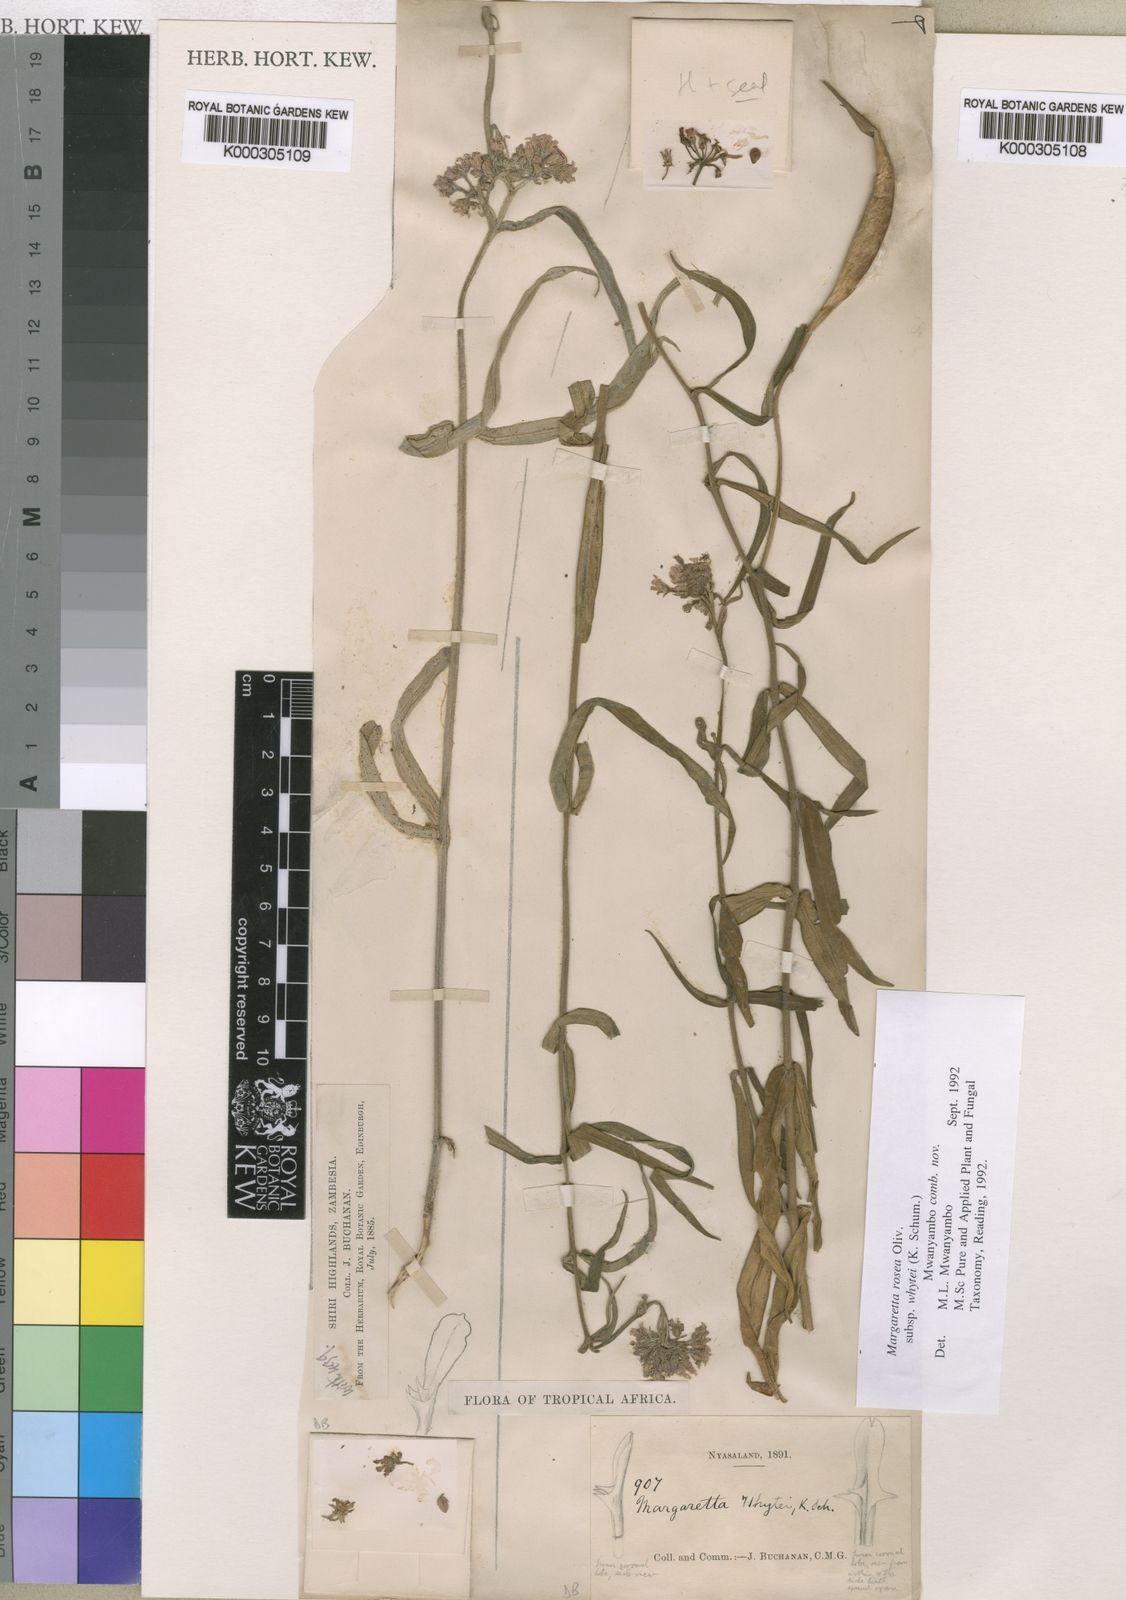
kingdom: Plantae
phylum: Tracheophyta
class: Magnoliopsida
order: Gentianales
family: Apocynaceae
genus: Margaretta
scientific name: Margaretta rosea
